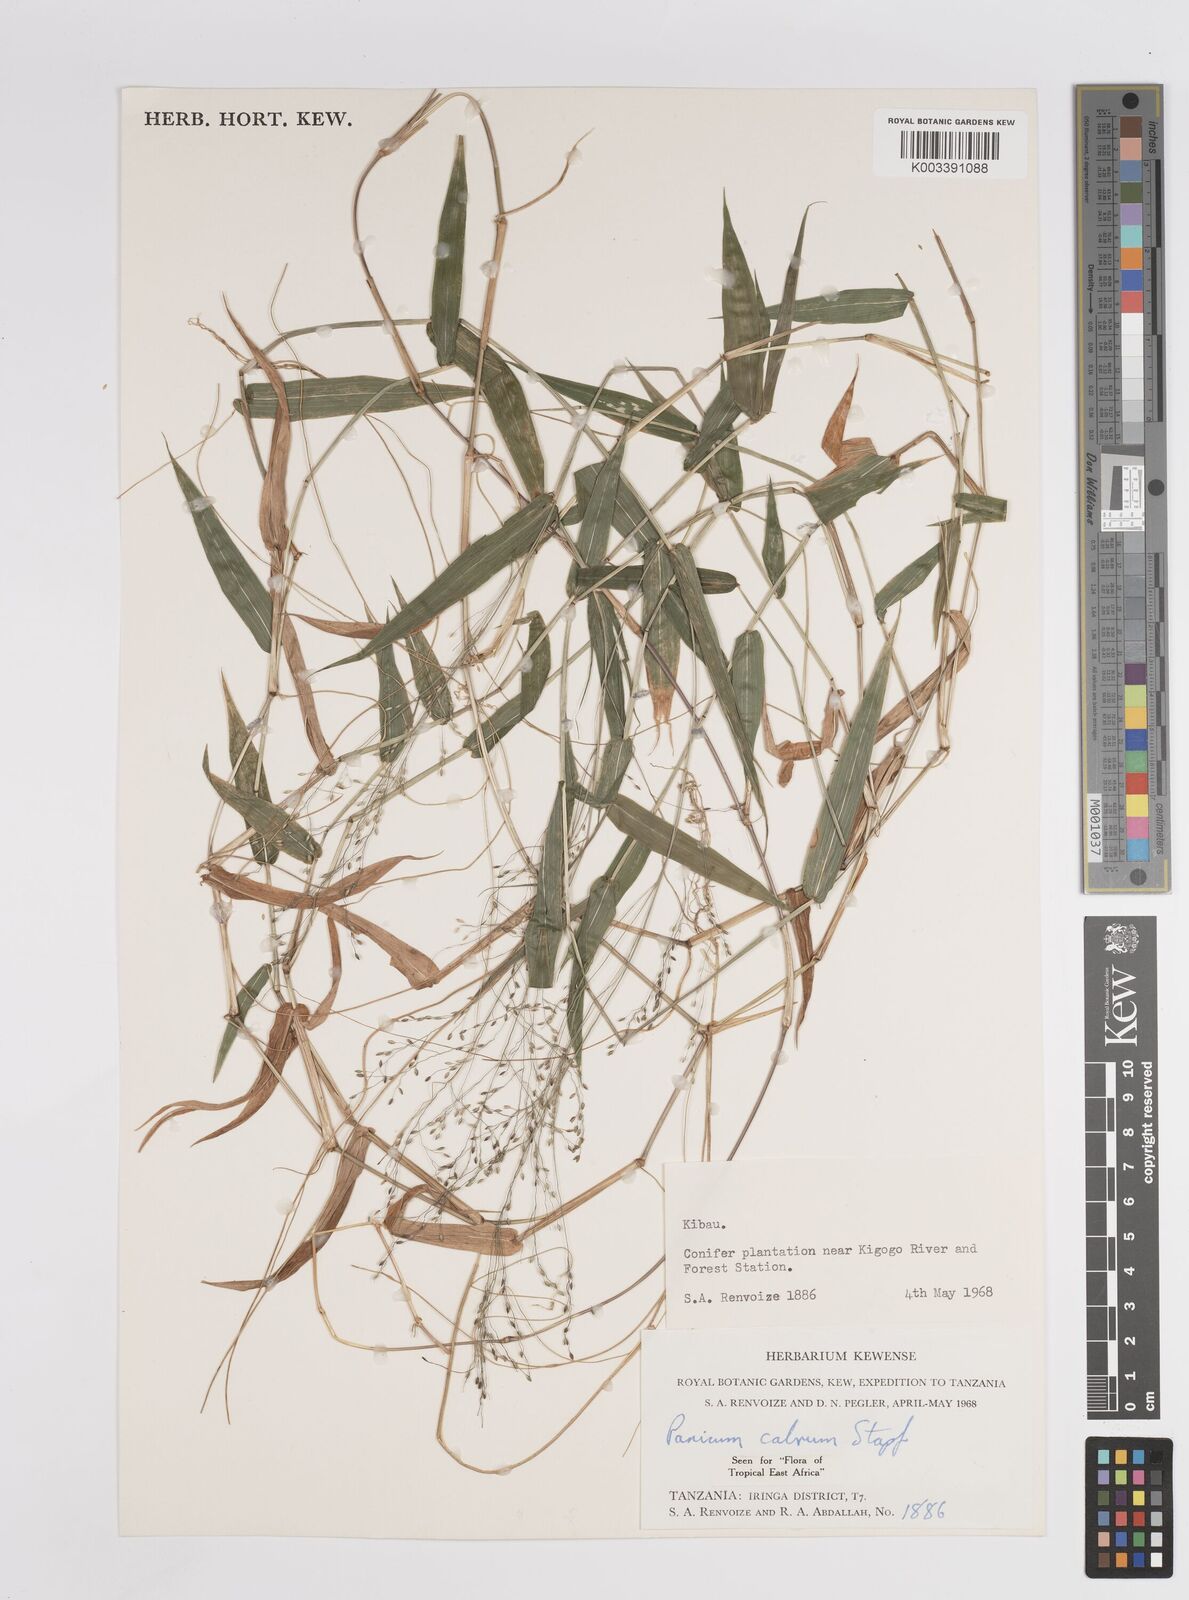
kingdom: Plantae
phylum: Tracheophyta
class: Liliopsida
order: Poales
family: Poaceae
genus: Panicum
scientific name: Panicum calvum
